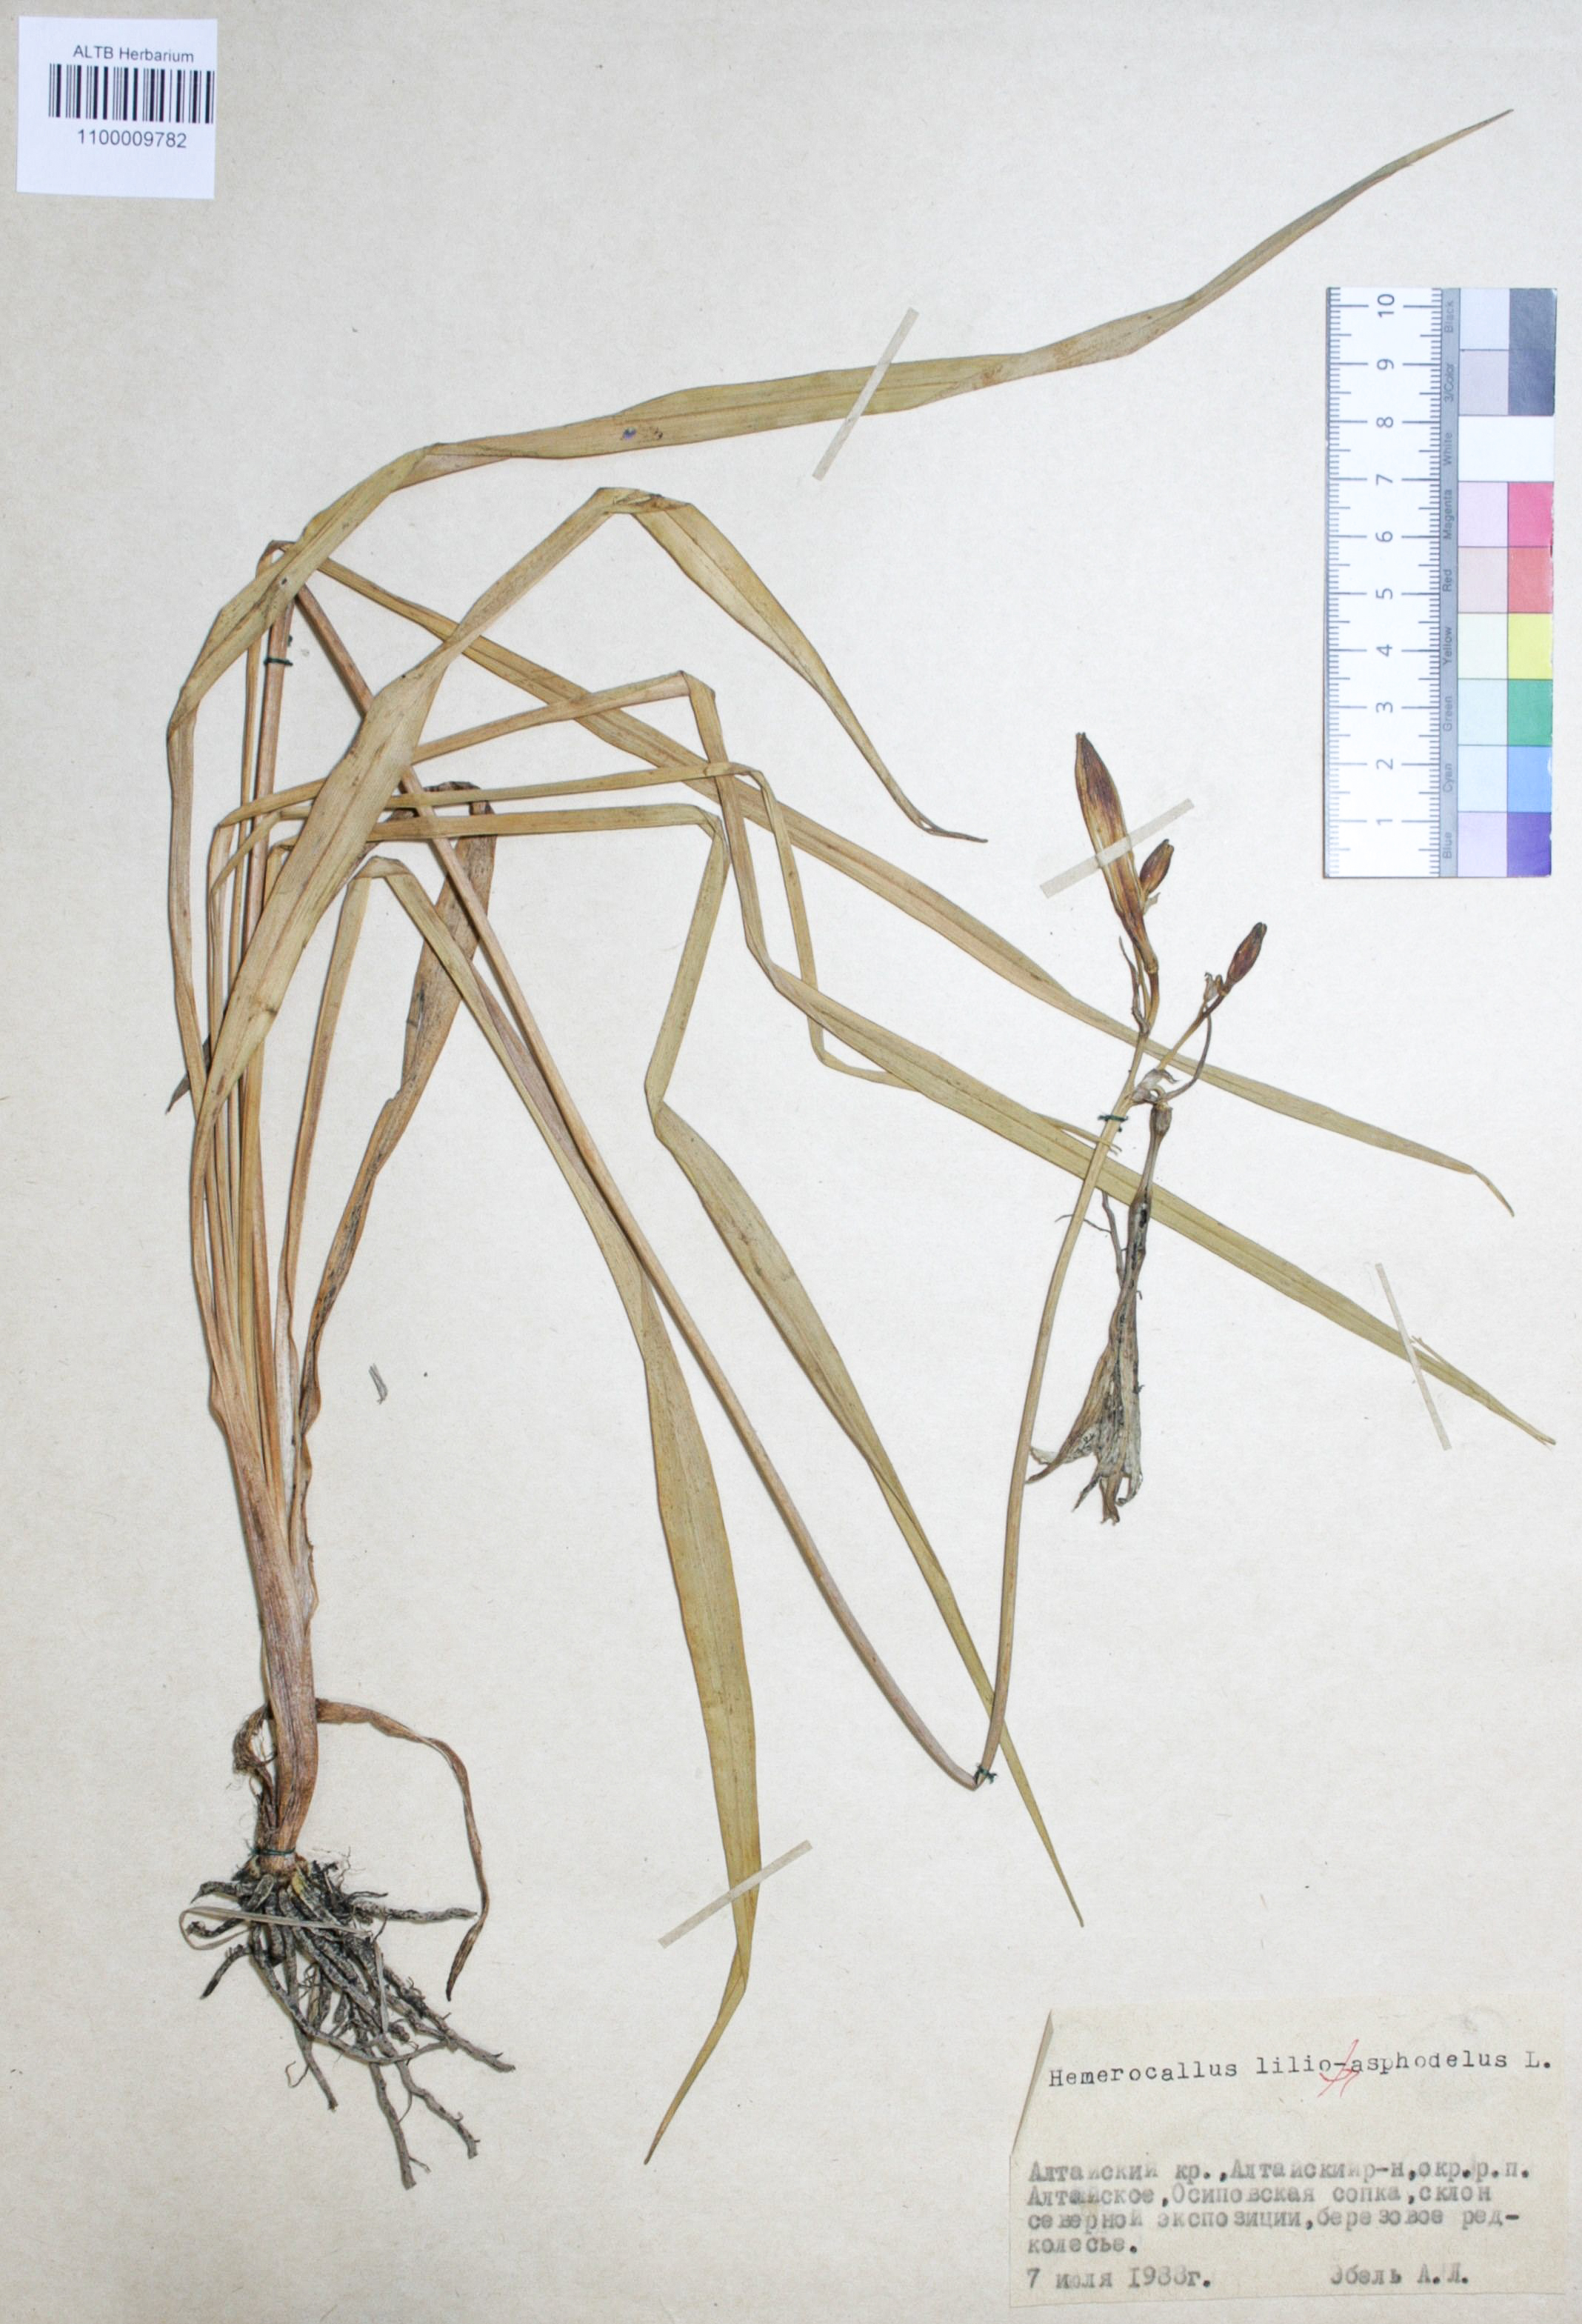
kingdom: Plantae
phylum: Tracheophyta
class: Liliopsida
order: Asparagales
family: Asphodelaceae
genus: Hemerocallis
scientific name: Hemerocallis lilioasphodelus
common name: Yellow day-lily
